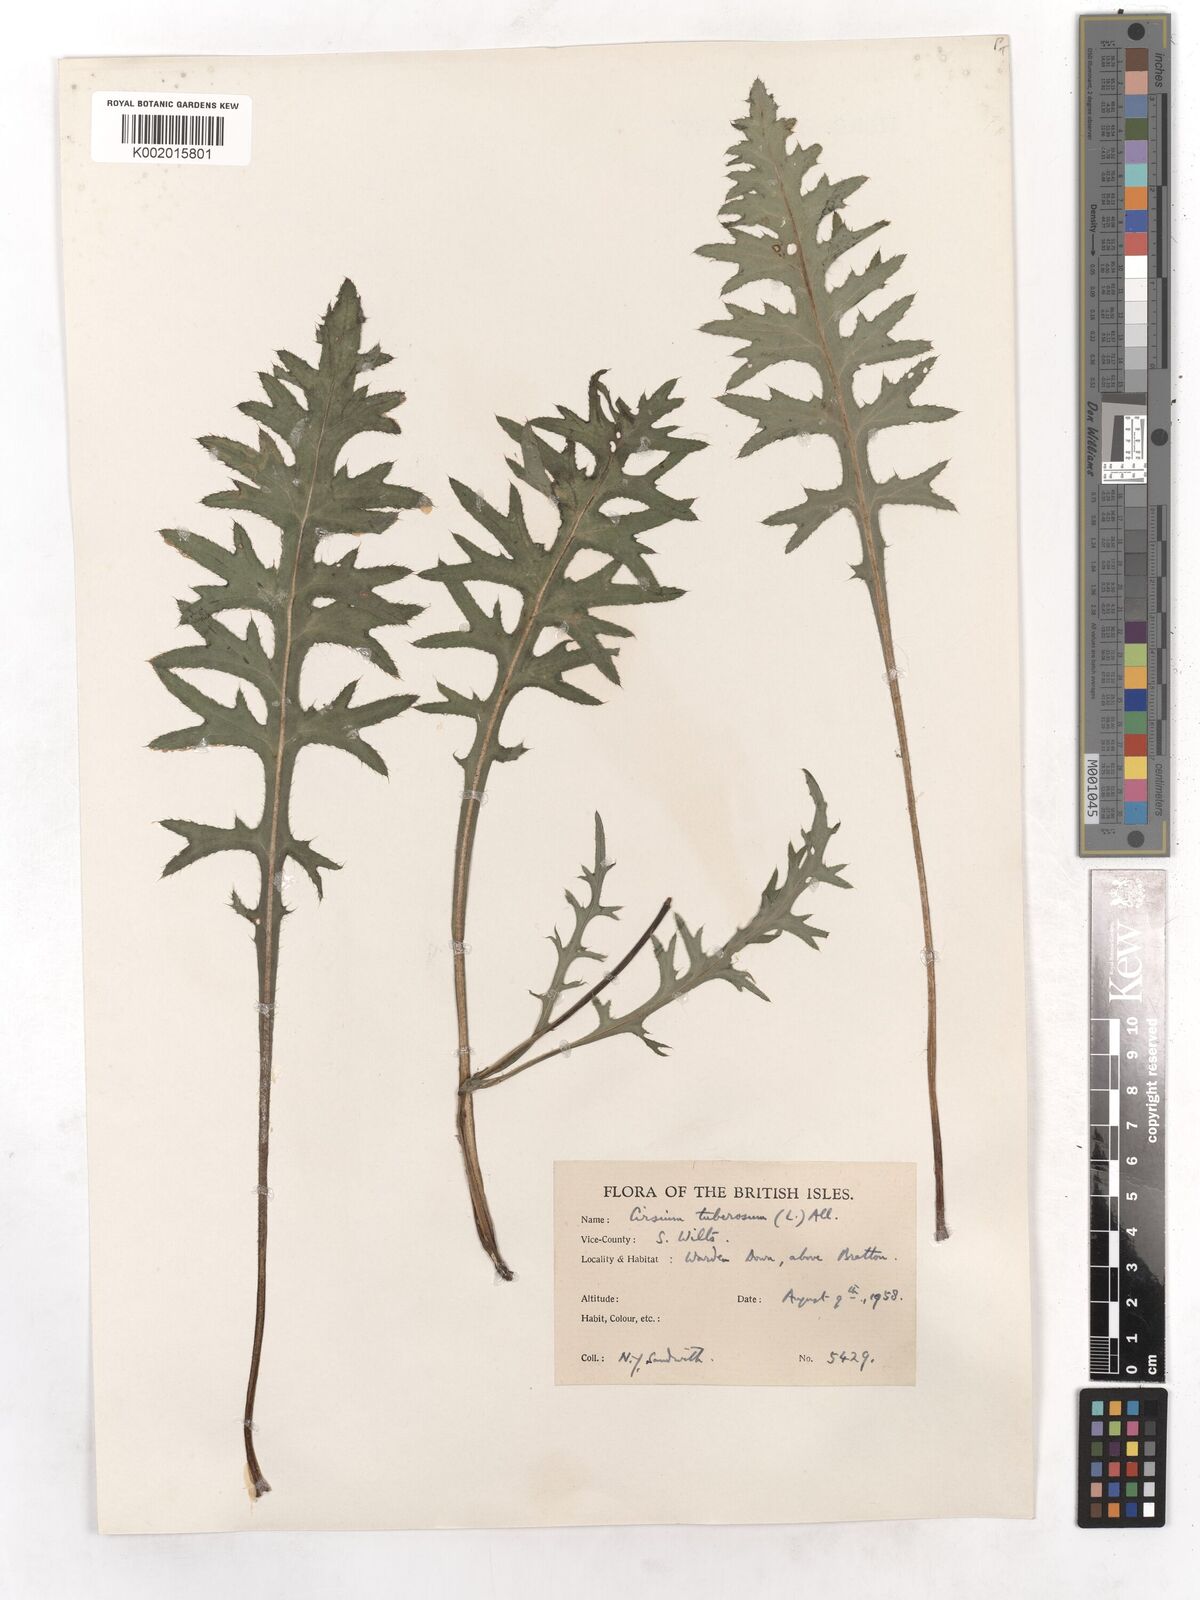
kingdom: Plantae
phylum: Tracheophyta
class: Magnoliopsida
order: Asterales
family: Asteraceae
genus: Cirsium
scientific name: Cirsium tuberosum
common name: Tuberous thistle
